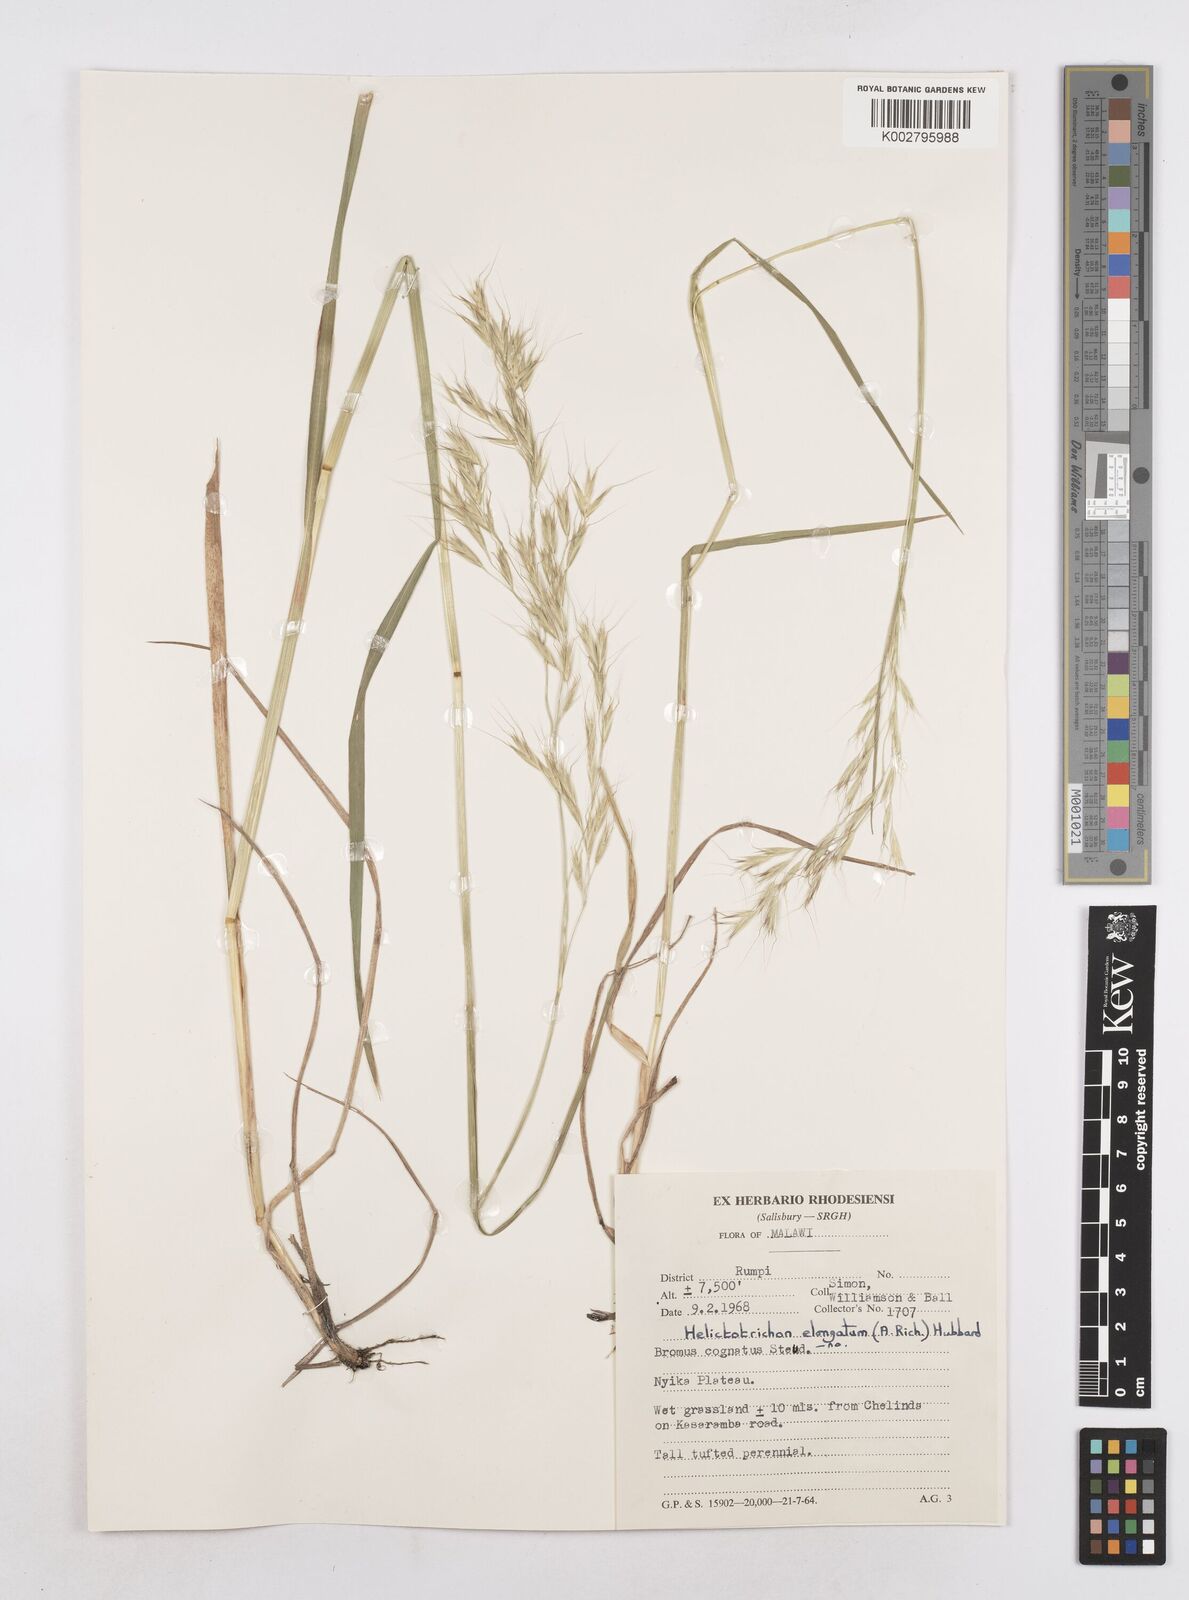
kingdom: Plantae
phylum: Tracheophyta
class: Liliopsida
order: Poales
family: Poaceae
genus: Trisetopsis
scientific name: Trisetopsis elongata
